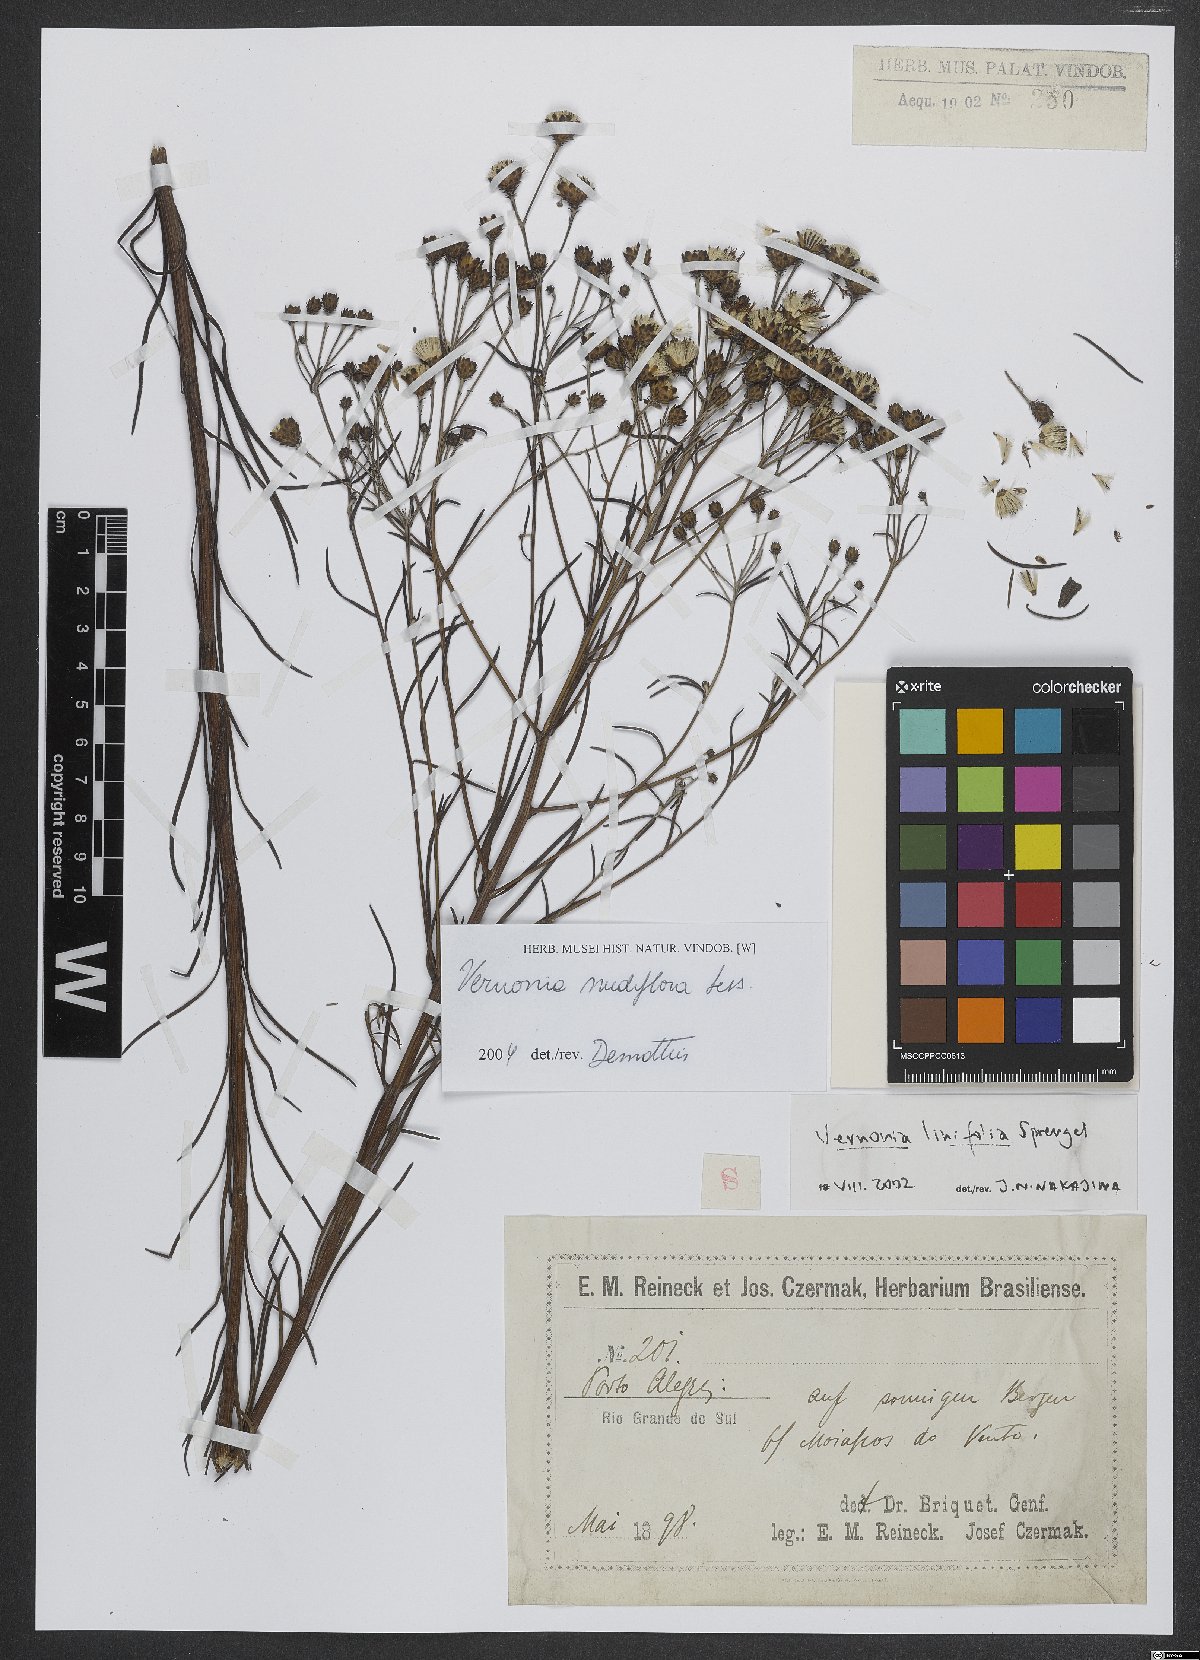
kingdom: Plantae
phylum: Tracheophyta
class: Magnoliopsida
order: Asterales
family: Asteraceae
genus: Vernonanthura
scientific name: Vernonanthura nudiflora
